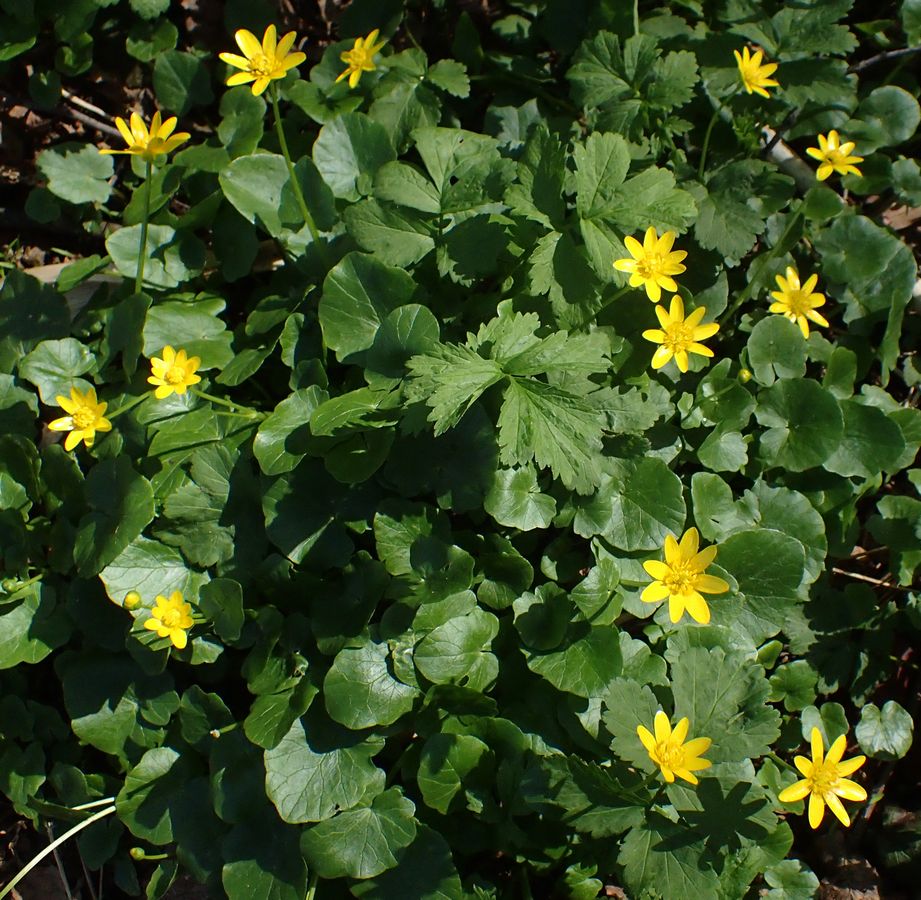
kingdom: Plantae
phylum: Tracheophyta
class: Magnoliopsida
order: Ranunculales
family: Ranunculaceae
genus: Ficaria
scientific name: Ficaria verna
